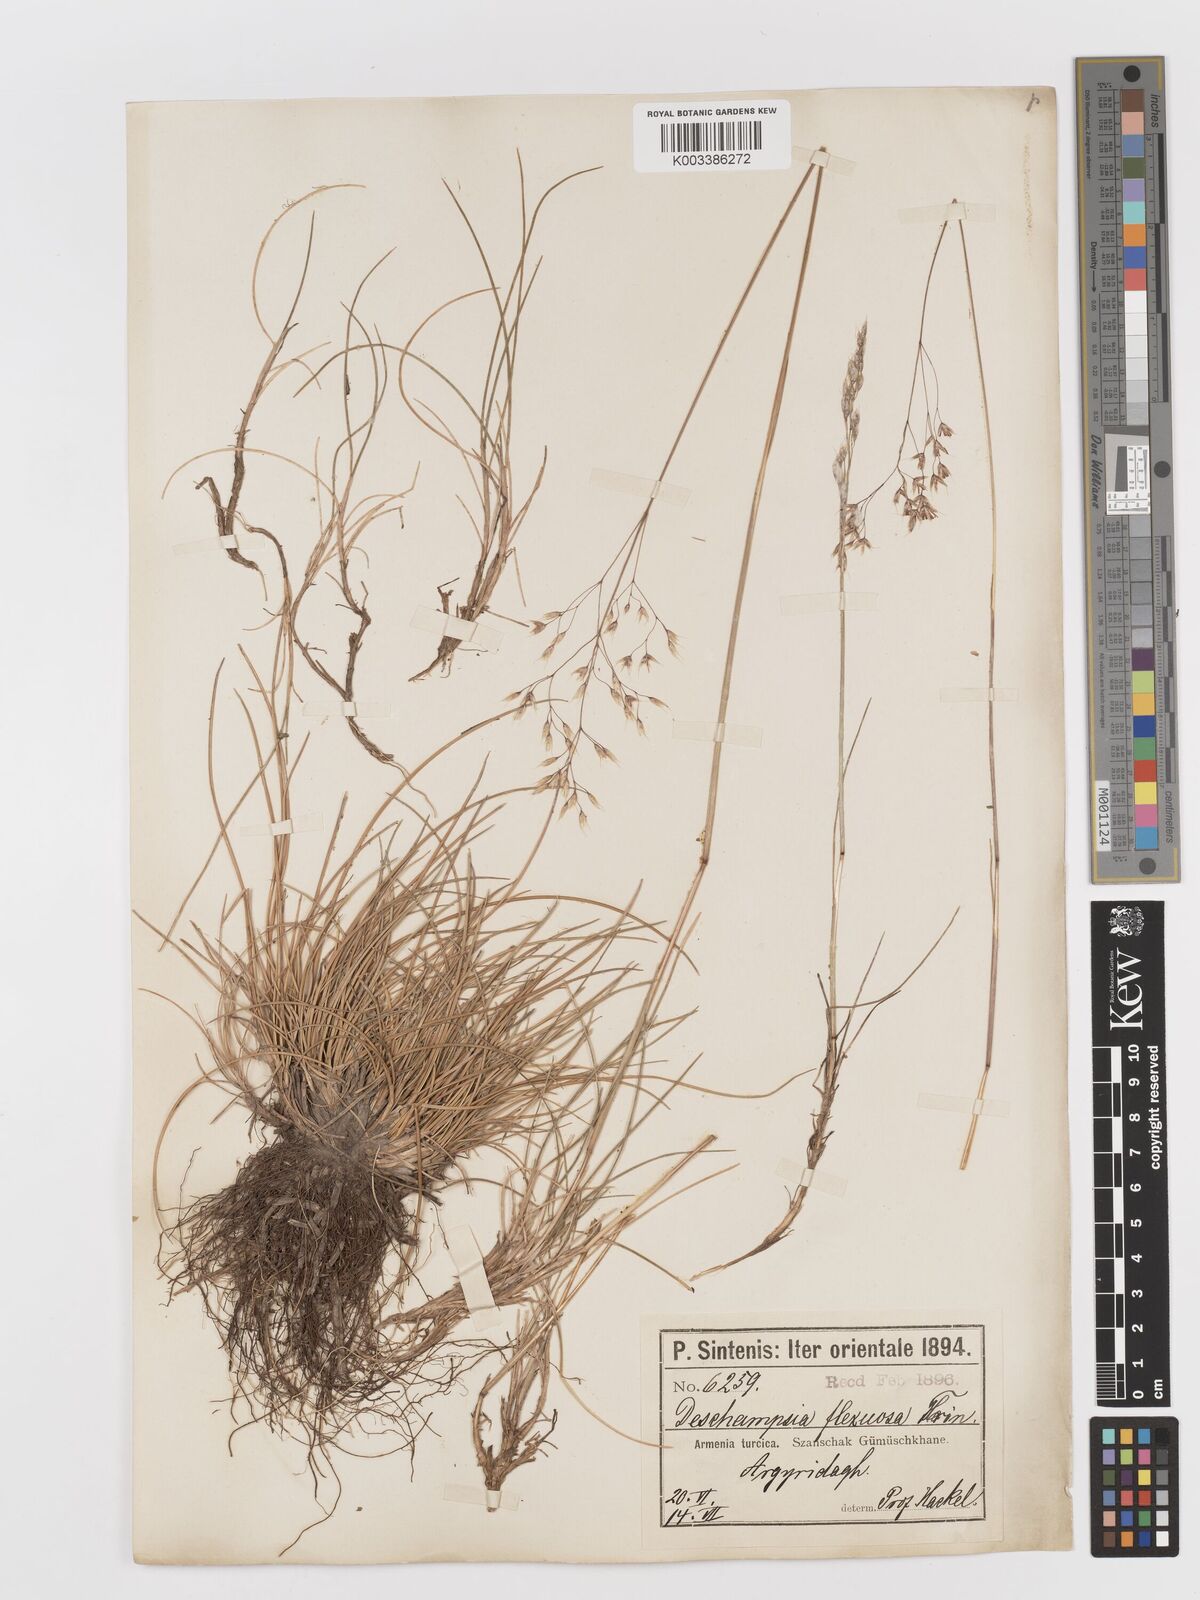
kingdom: Plantae
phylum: Tracheophyta
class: Liliopsida
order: Poales
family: Poaceae
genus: Avenella
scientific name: Avenella flexuosa
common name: Wavy hairgrass
